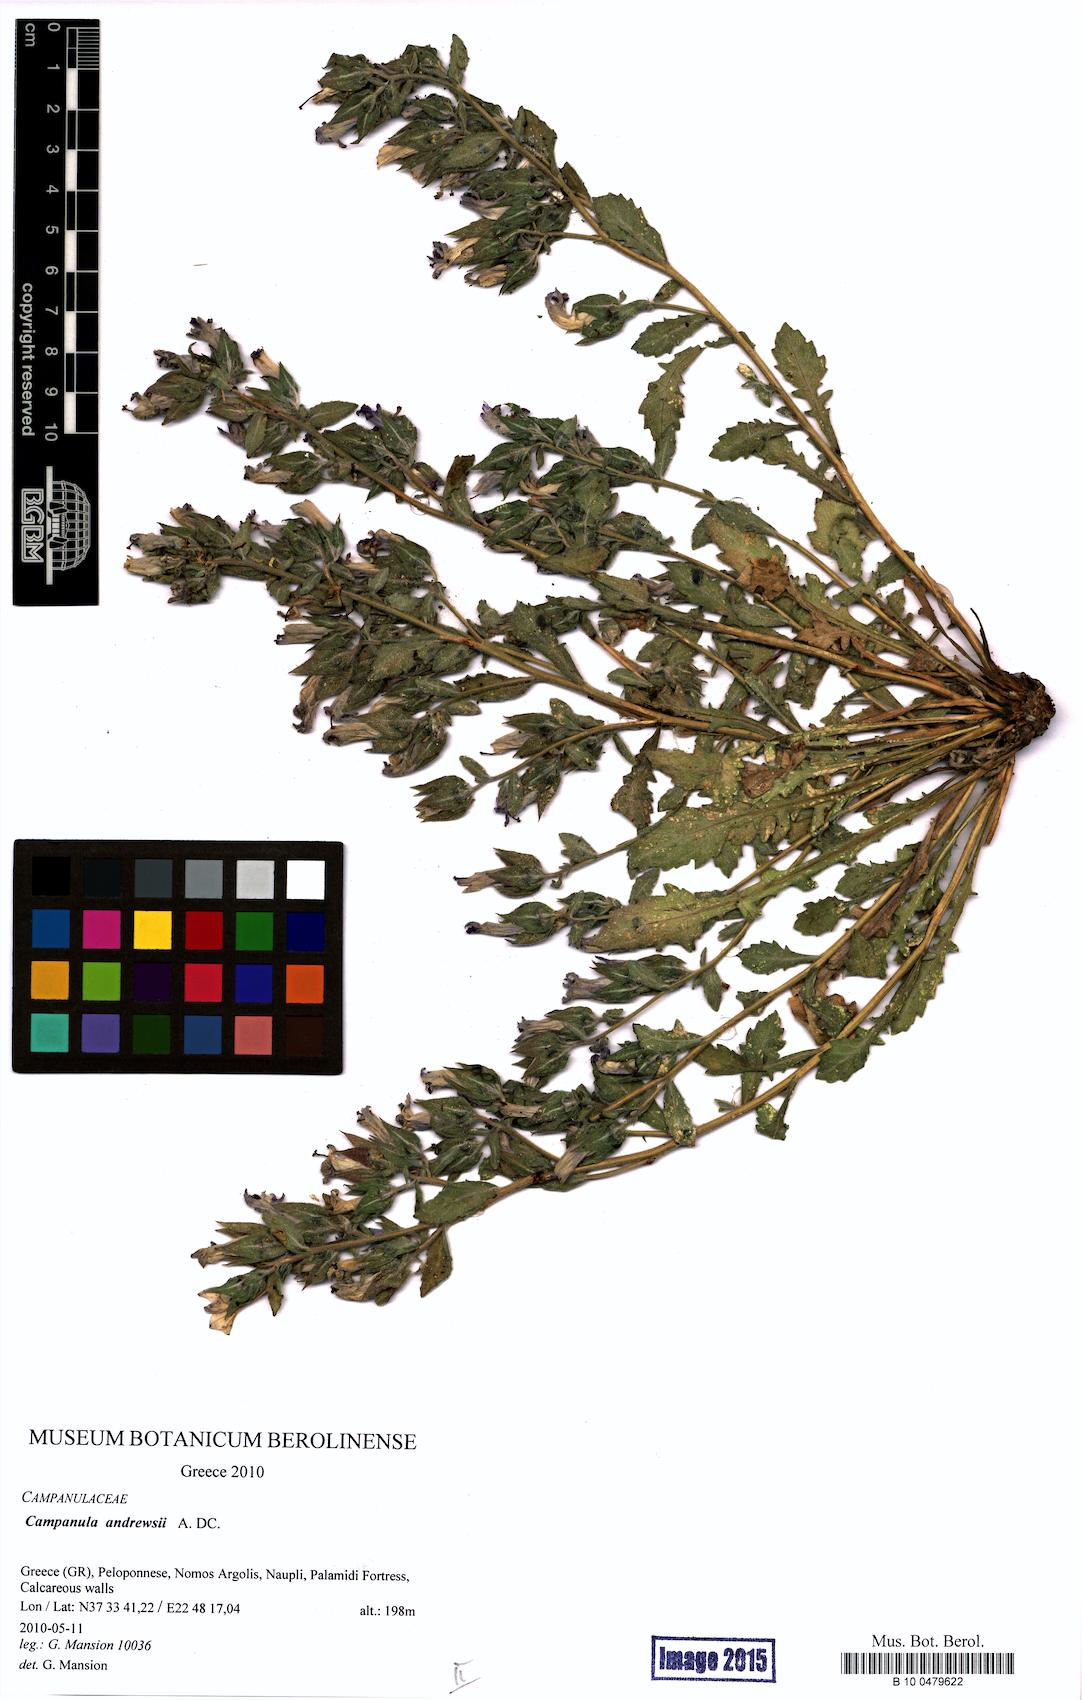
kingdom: Plantae
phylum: Tracheophyta
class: Magnoliopsida
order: Asterales
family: Campanulaceae
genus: Campanula
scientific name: Campanula andrewsii
